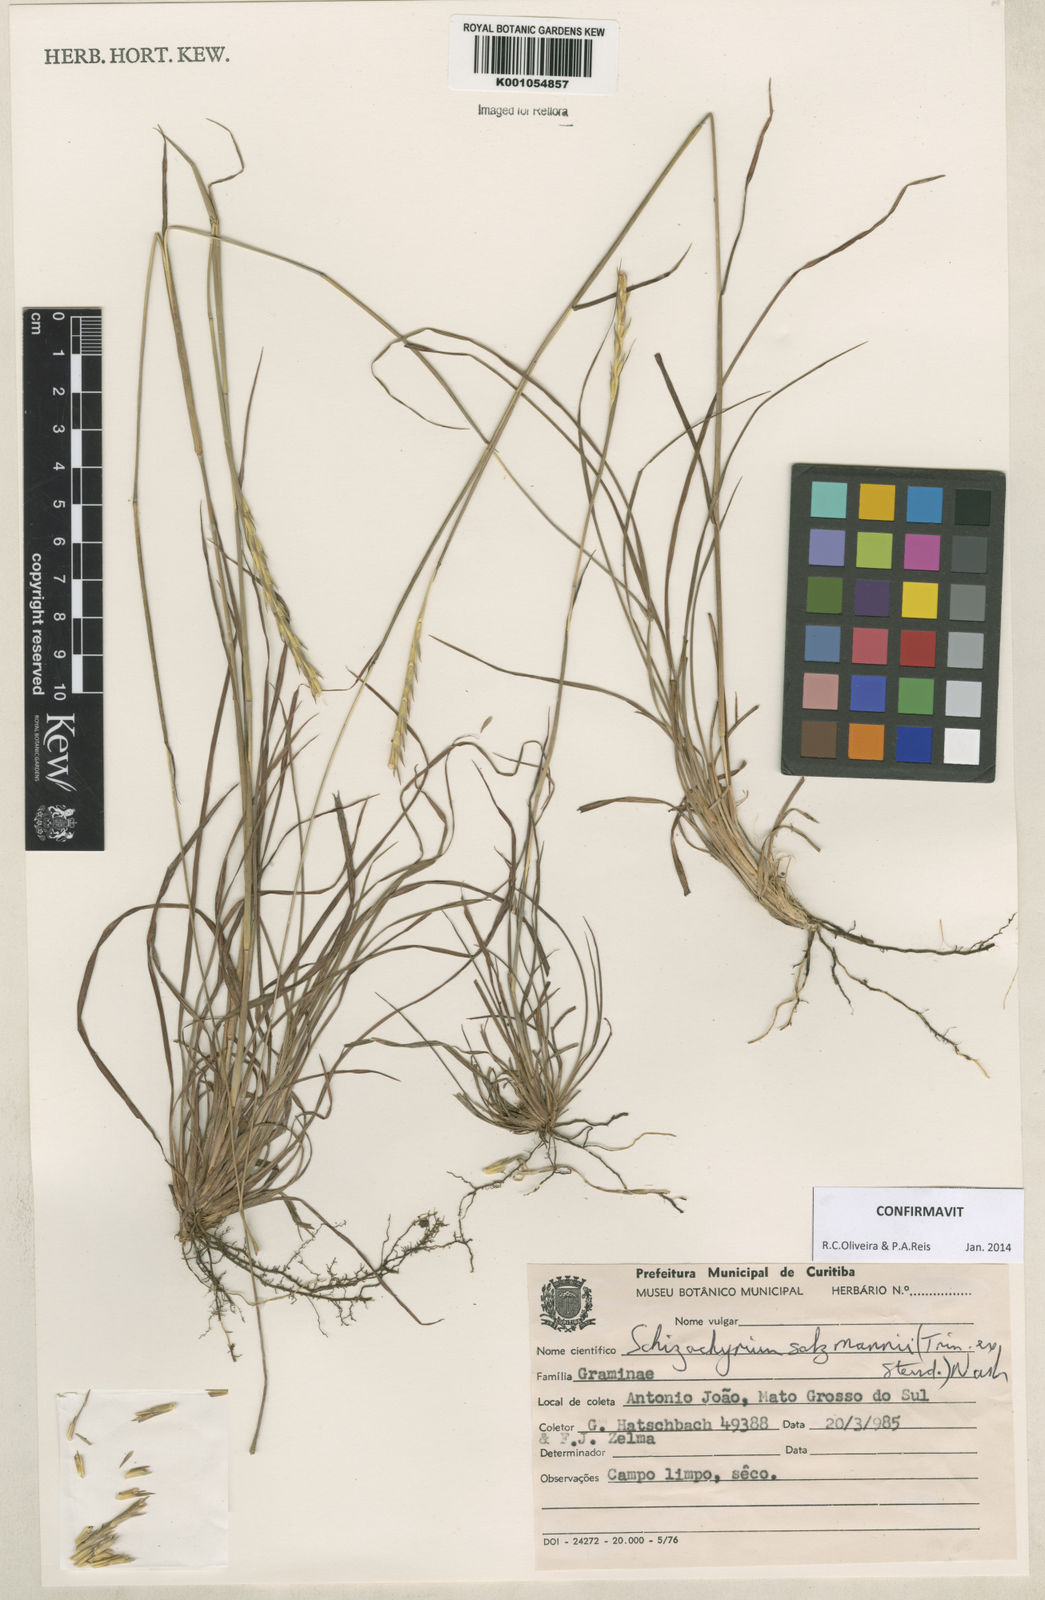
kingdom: Plantae
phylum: Tracheophyta
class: Liliopsida
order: Poales
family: Poaceae
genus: Andropogon
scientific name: Andropogon salzmannii
